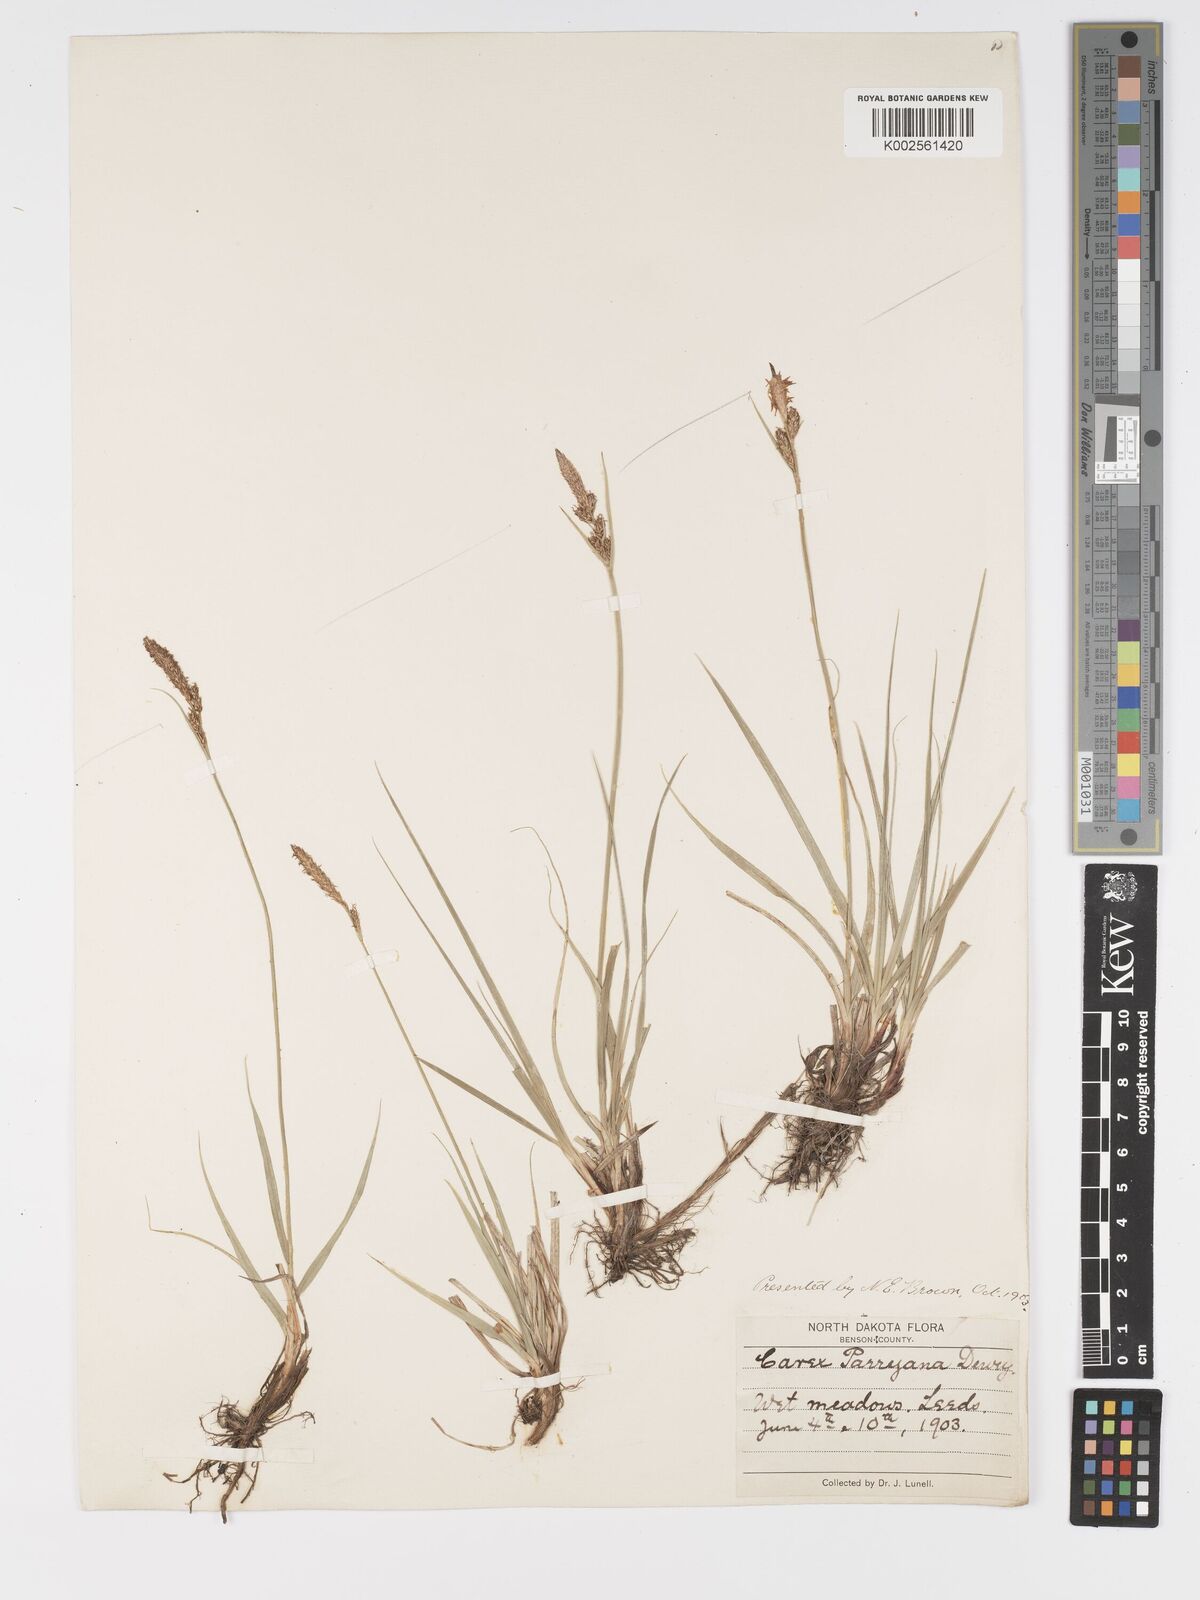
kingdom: Plantae
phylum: Tracheophyta
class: Liliopsida
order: Poales
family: Cyperaceae
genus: Carex
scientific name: Carex hallii
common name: Deer sedge
